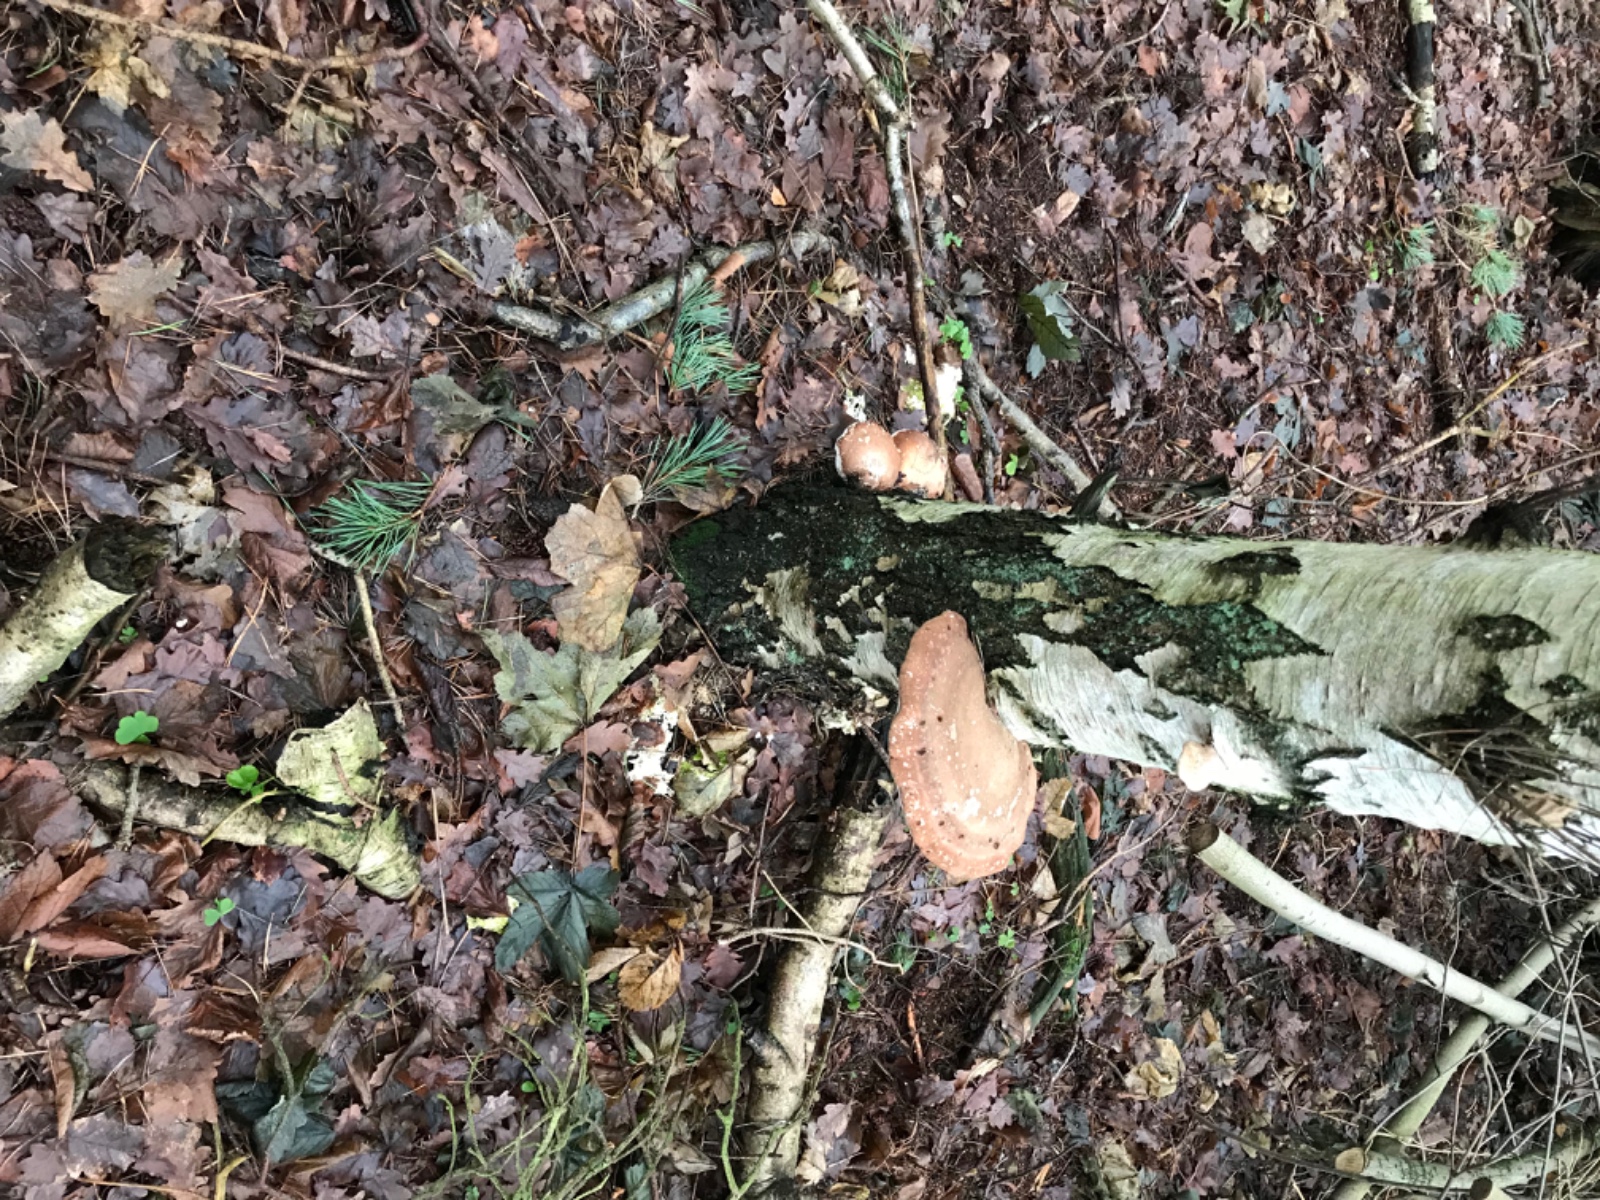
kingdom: Fungi
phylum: Basidiomycota
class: Agaricomycetes
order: Polyporales
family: Fomitopsidaceae
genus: Fomitopsis
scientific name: Fomitopsis betulina
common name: birkeporesvamp
